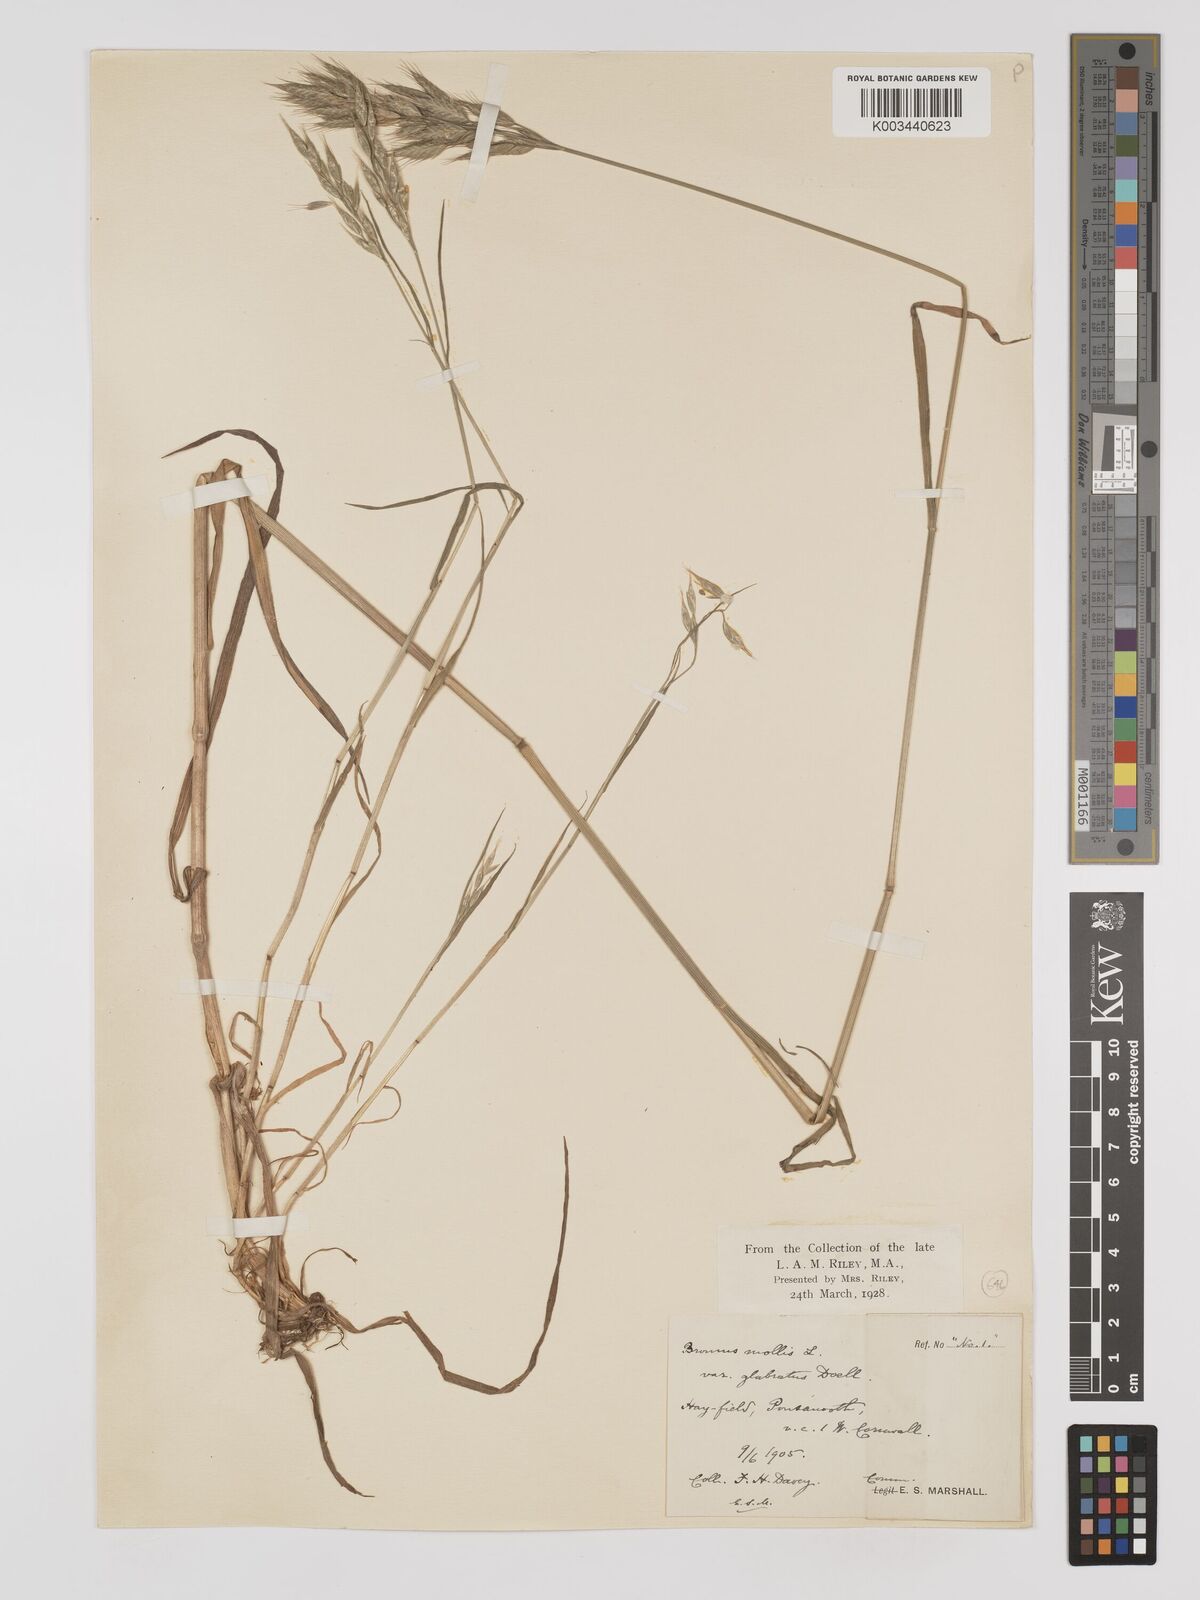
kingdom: Plantae
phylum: Tracheophyta
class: Liliopsida
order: Poales
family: Poaceae
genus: Bromus
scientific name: Bromus hordeaceus
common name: Soft brome
